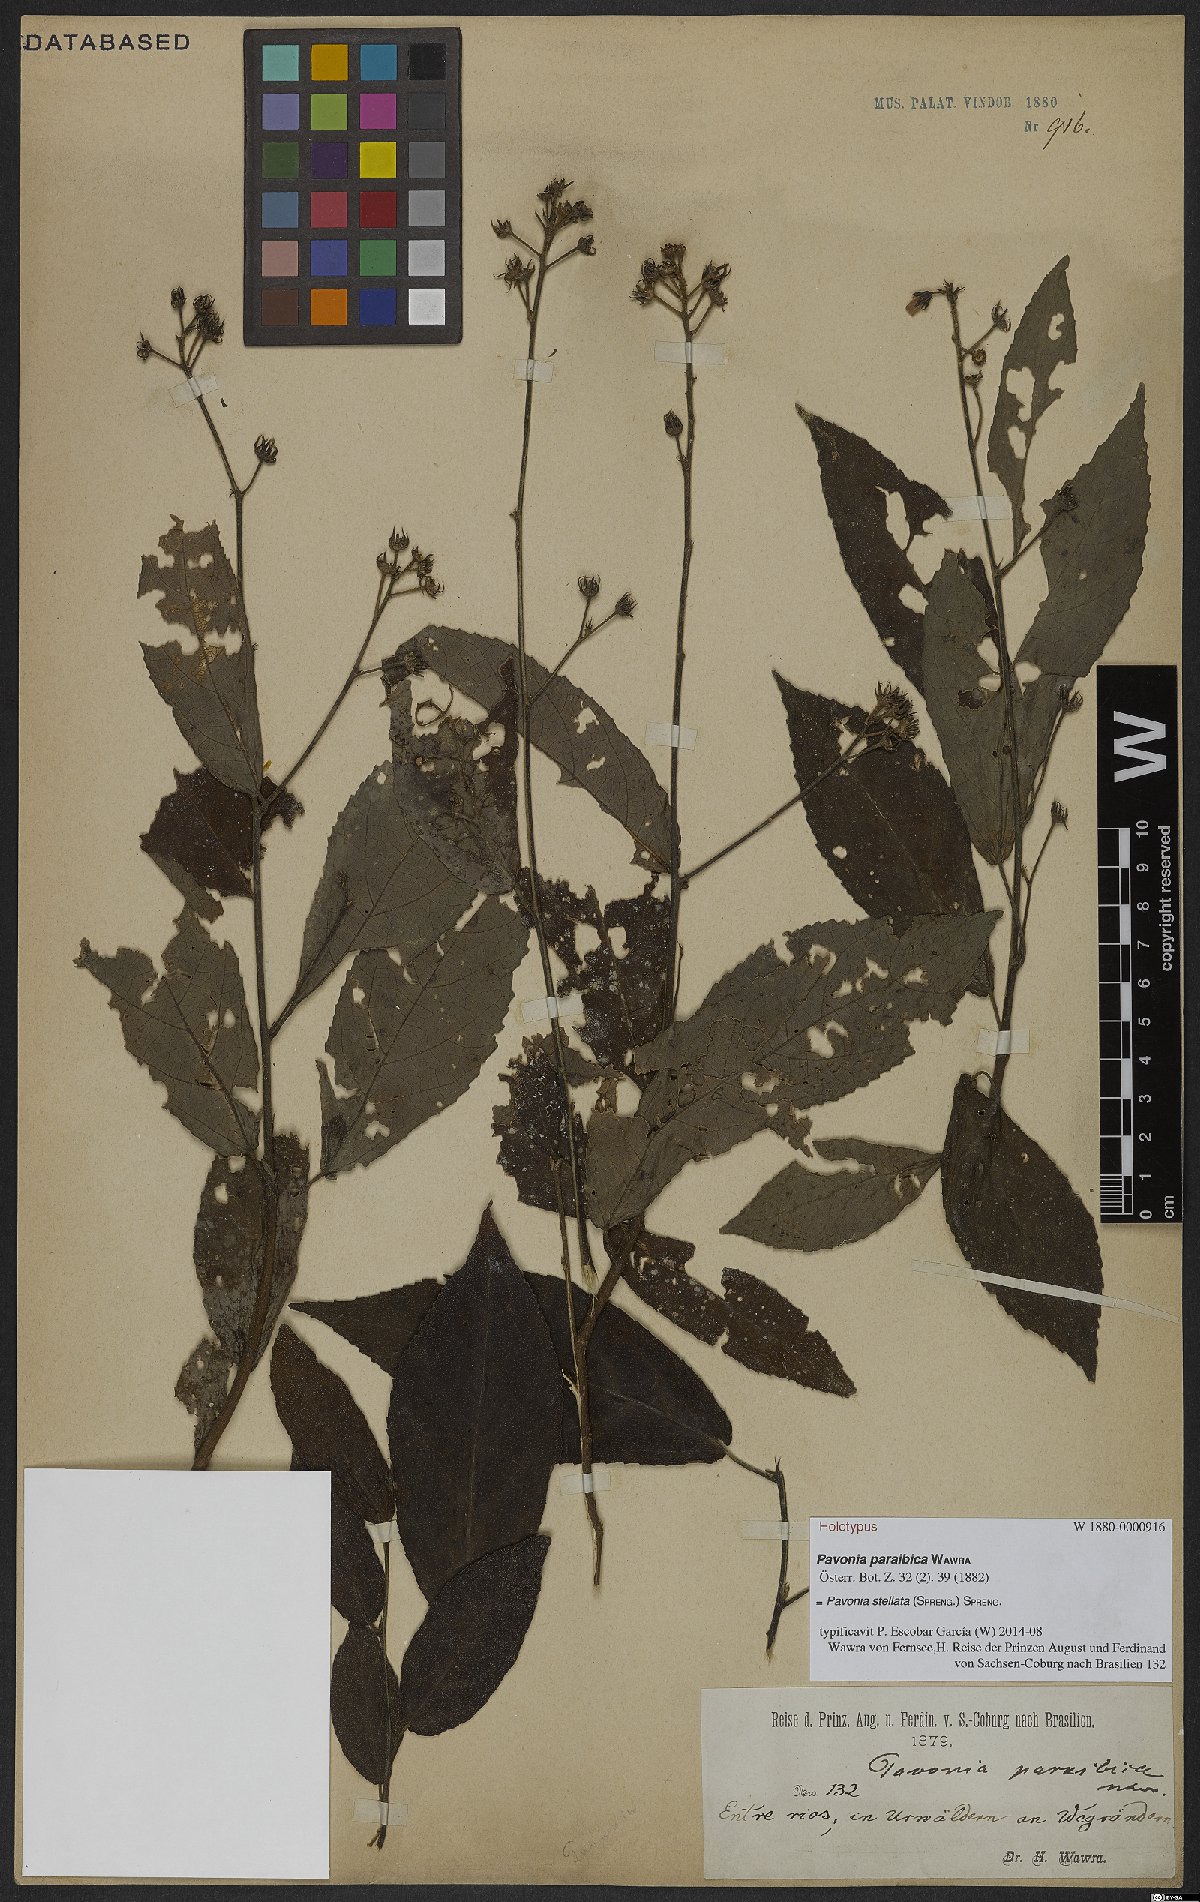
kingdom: Plantae
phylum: Tracheophyta
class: Magnoliopsida
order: Malvales
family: Malvaceae
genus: Pavonia
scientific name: Pavonia fruticosa
